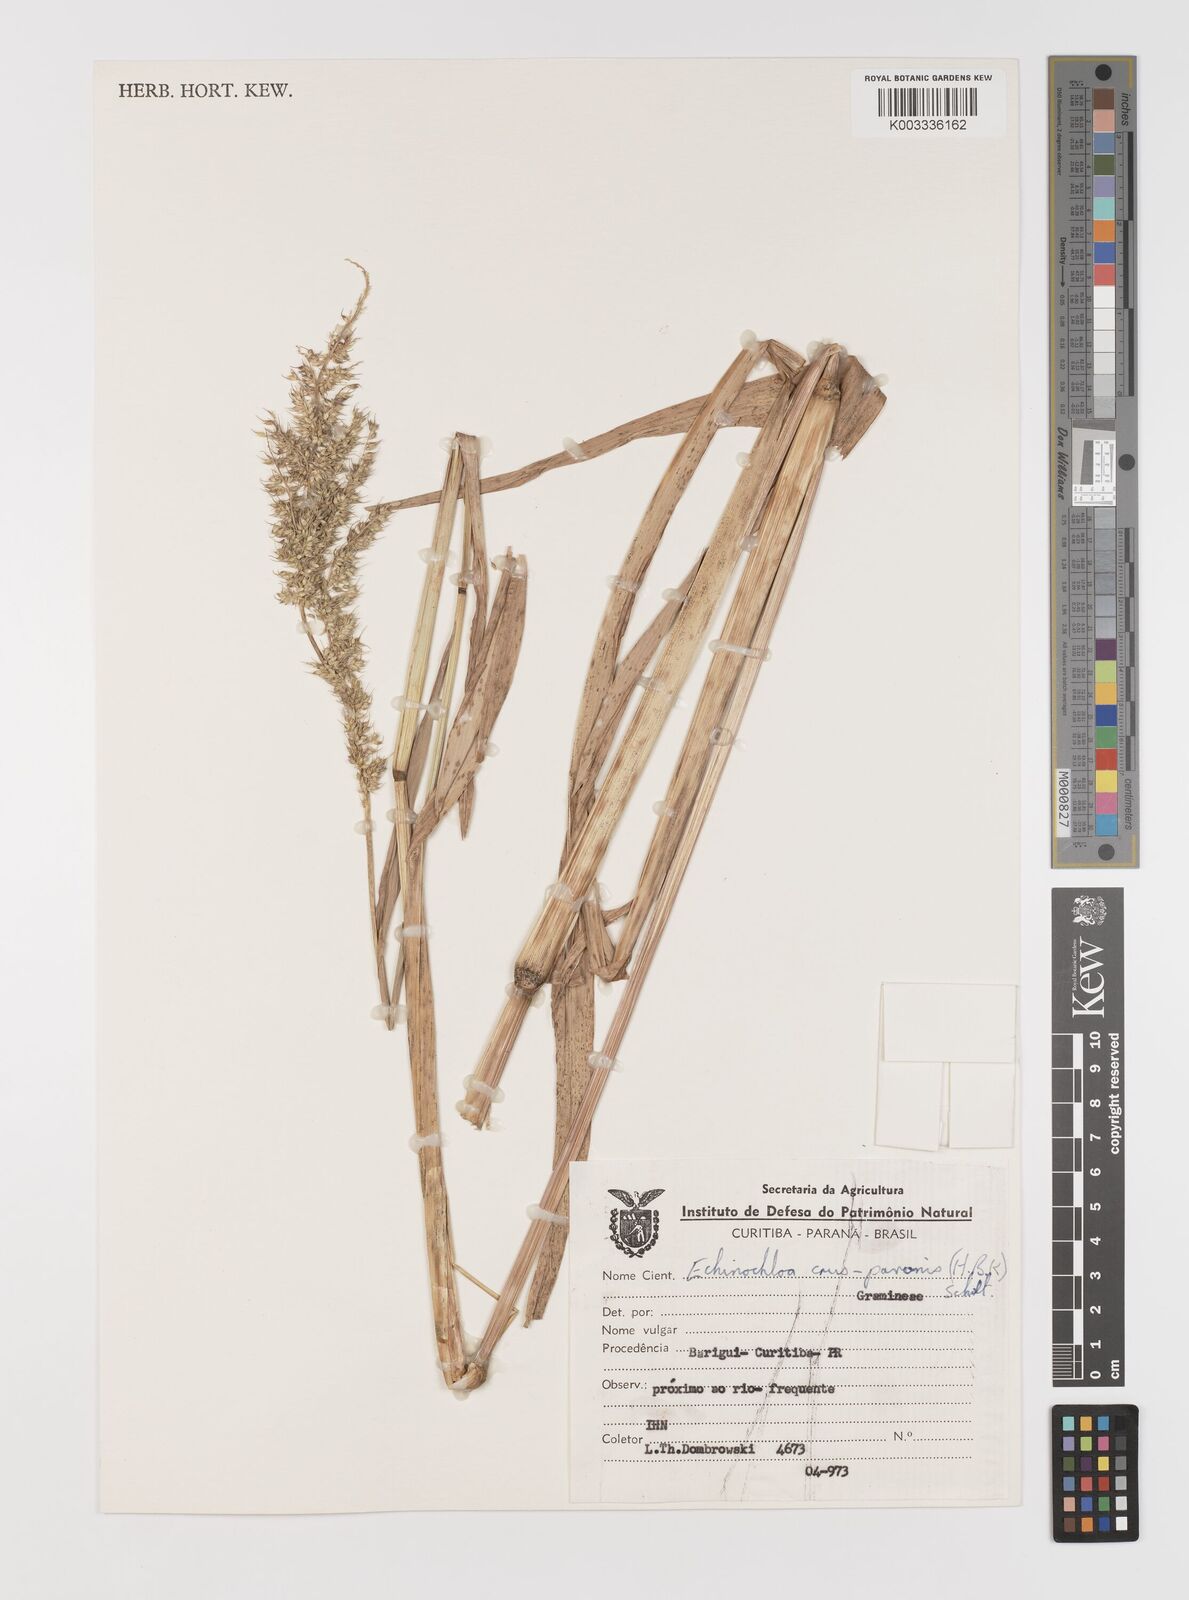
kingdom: Plantae
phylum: Tracheophyta
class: Liliopsida
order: Poales
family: Poaceae
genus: Echinochloa
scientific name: Echinochloa crus-pavonis
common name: Gulf cockspur grass
